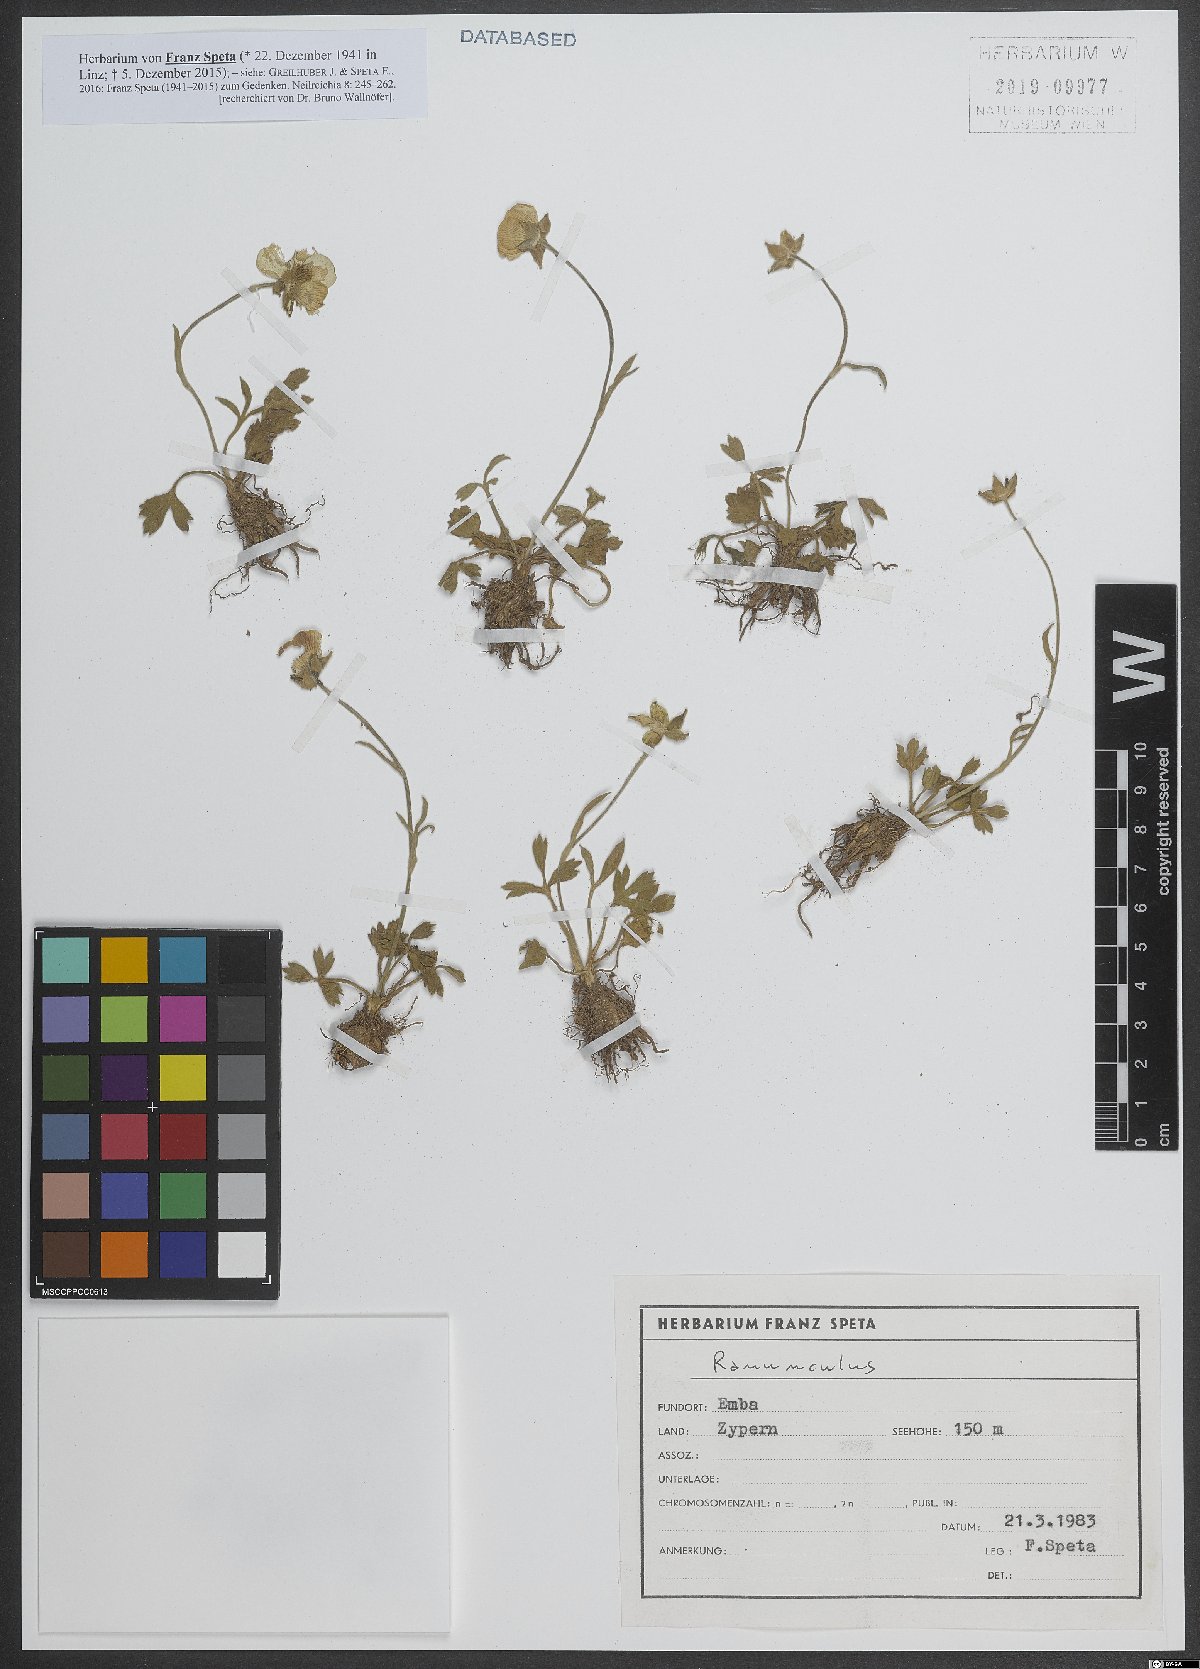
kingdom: Plantae
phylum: Tracheophyta
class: Magnoliopsida
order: Ranunculales
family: Ranunculaceae
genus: Ranunculus
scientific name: Ranunculus
